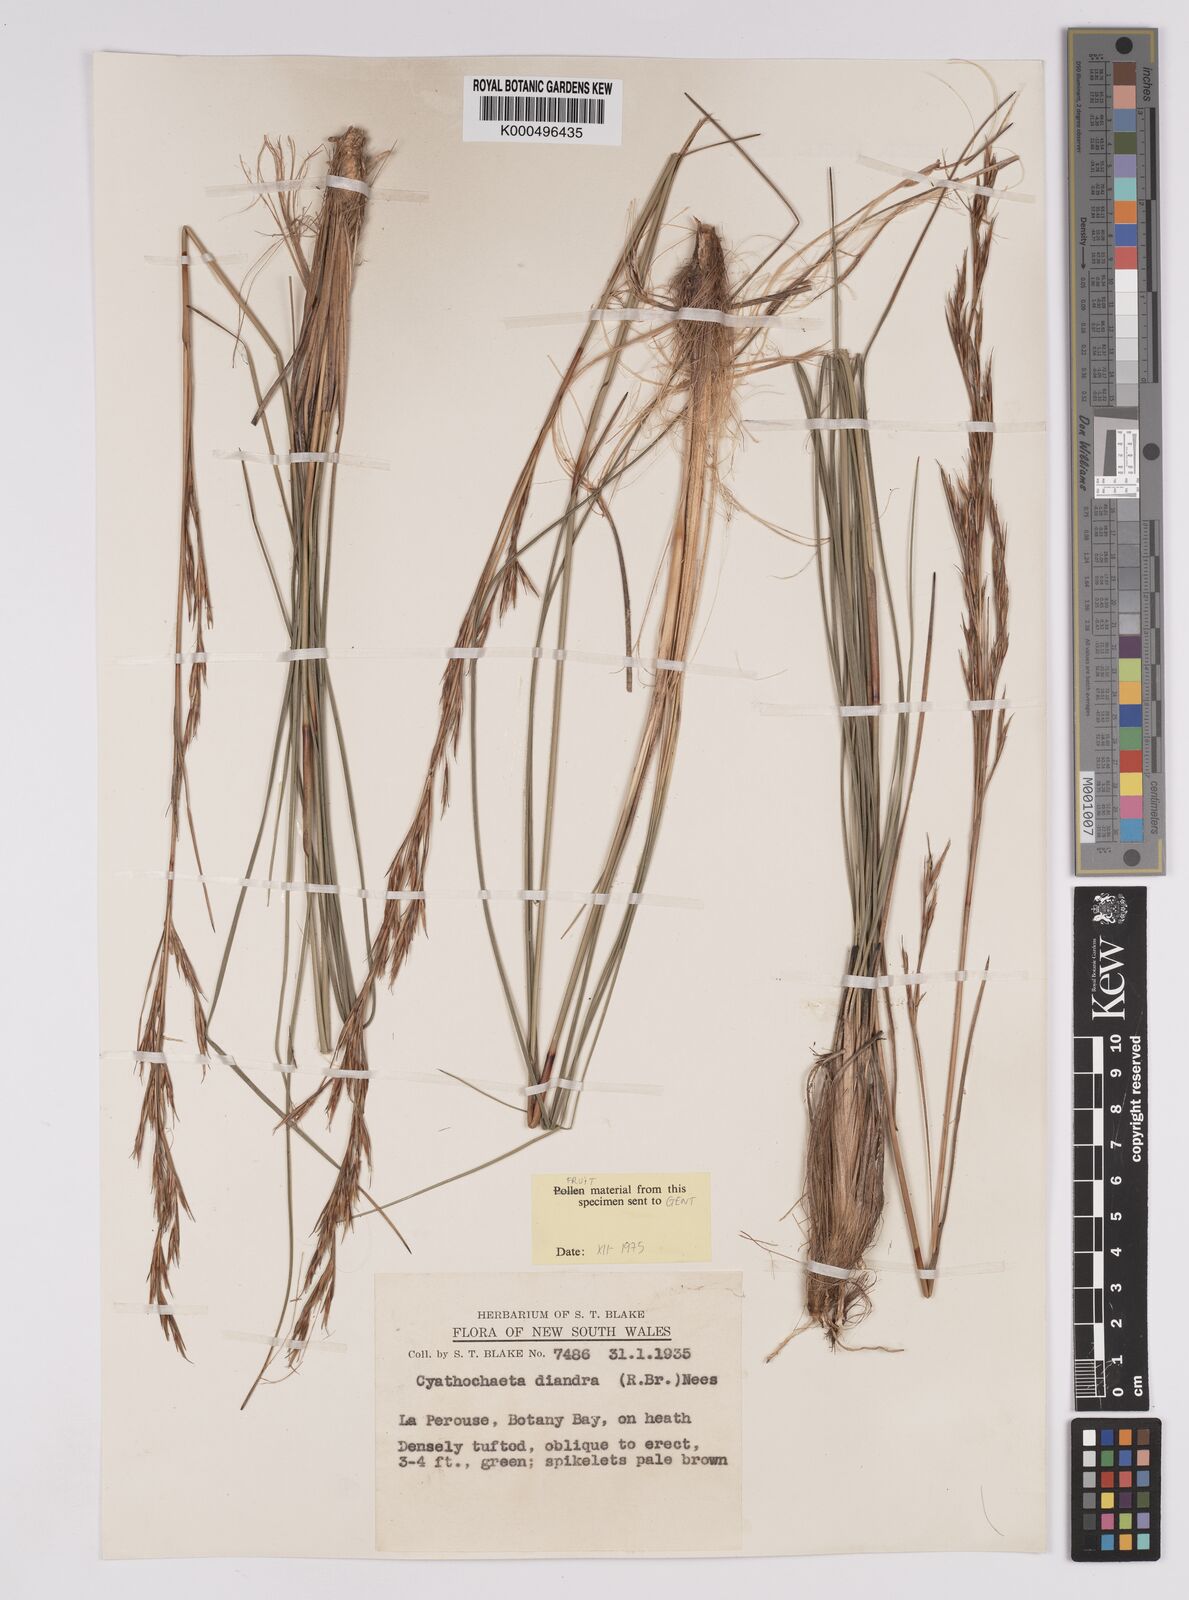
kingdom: Plantae
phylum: Tracheophyta
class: Liliopsida
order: Poales
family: Cyperaceae
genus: Cyathochaeta
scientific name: Cyathochaeta diandra
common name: Sheath rush
